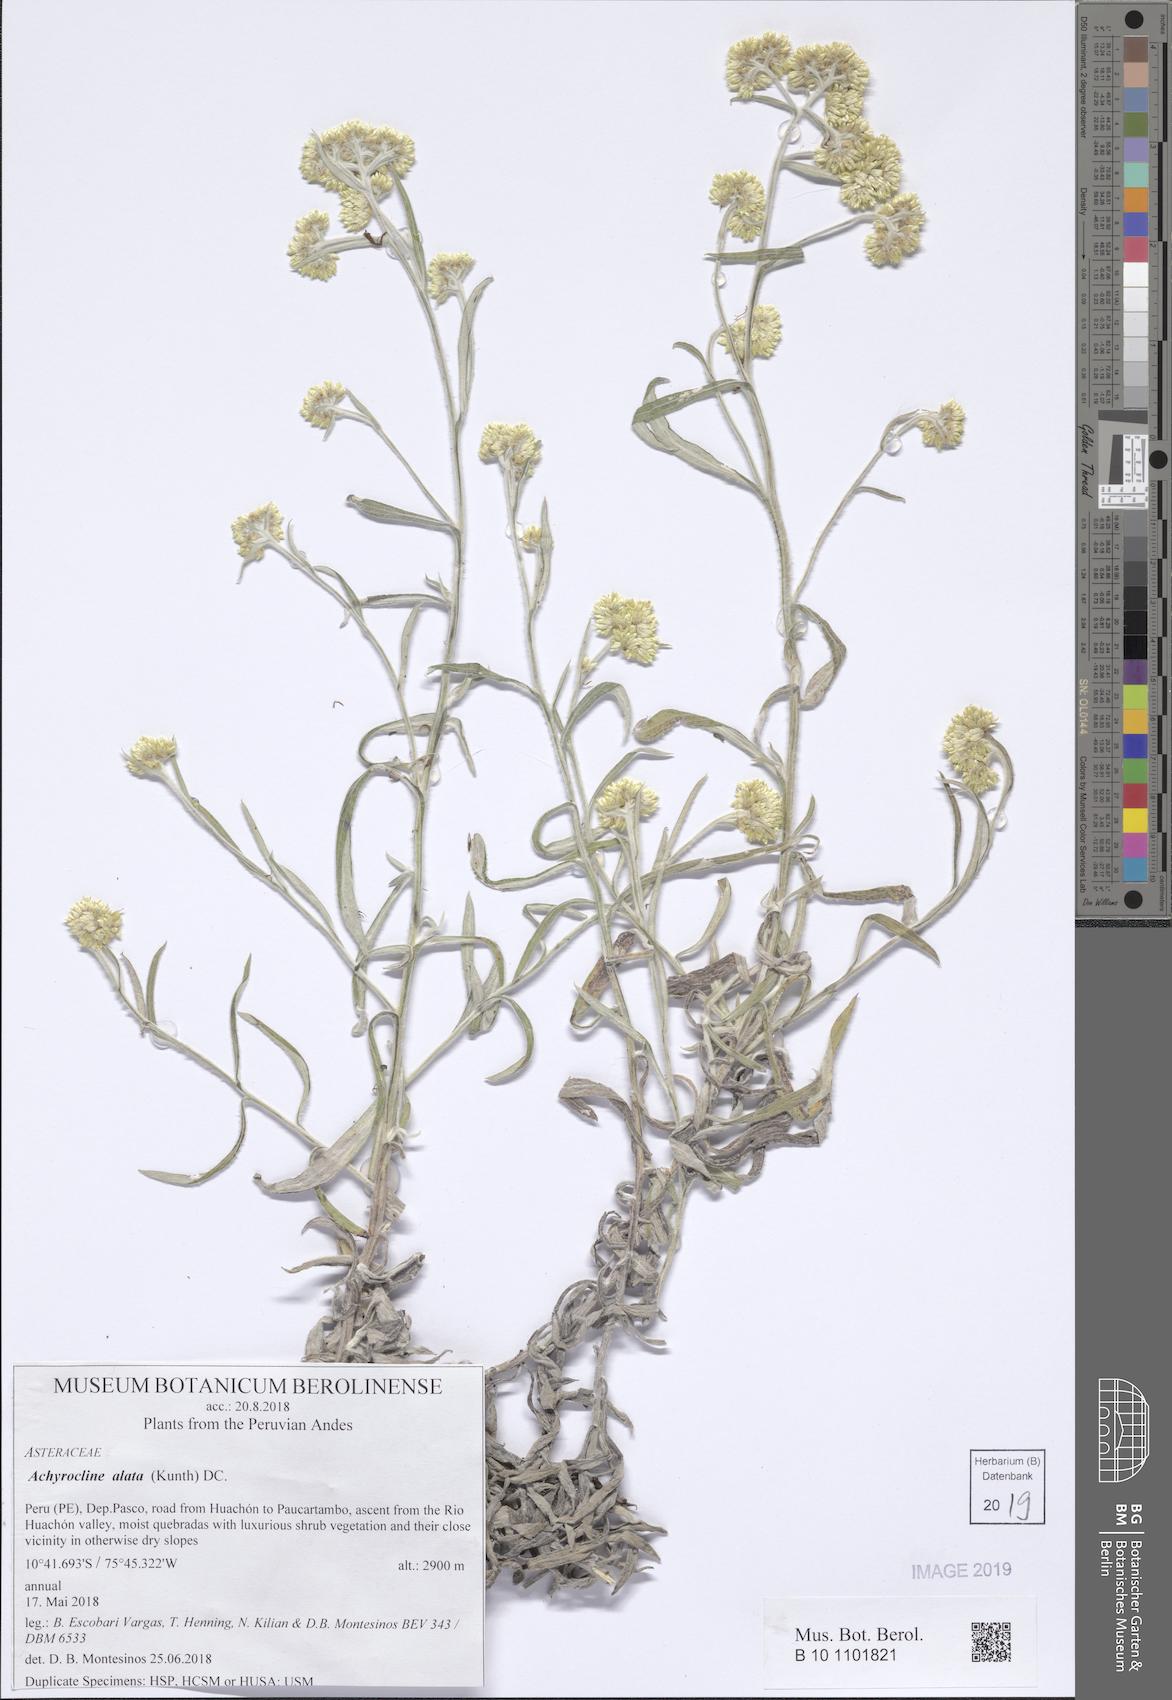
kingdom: Plantae
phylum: Tracheophyta
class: Magnoliopsida
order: Asterales
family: Asteraceae
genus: Achyrocline
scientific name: Achyrocline alata
